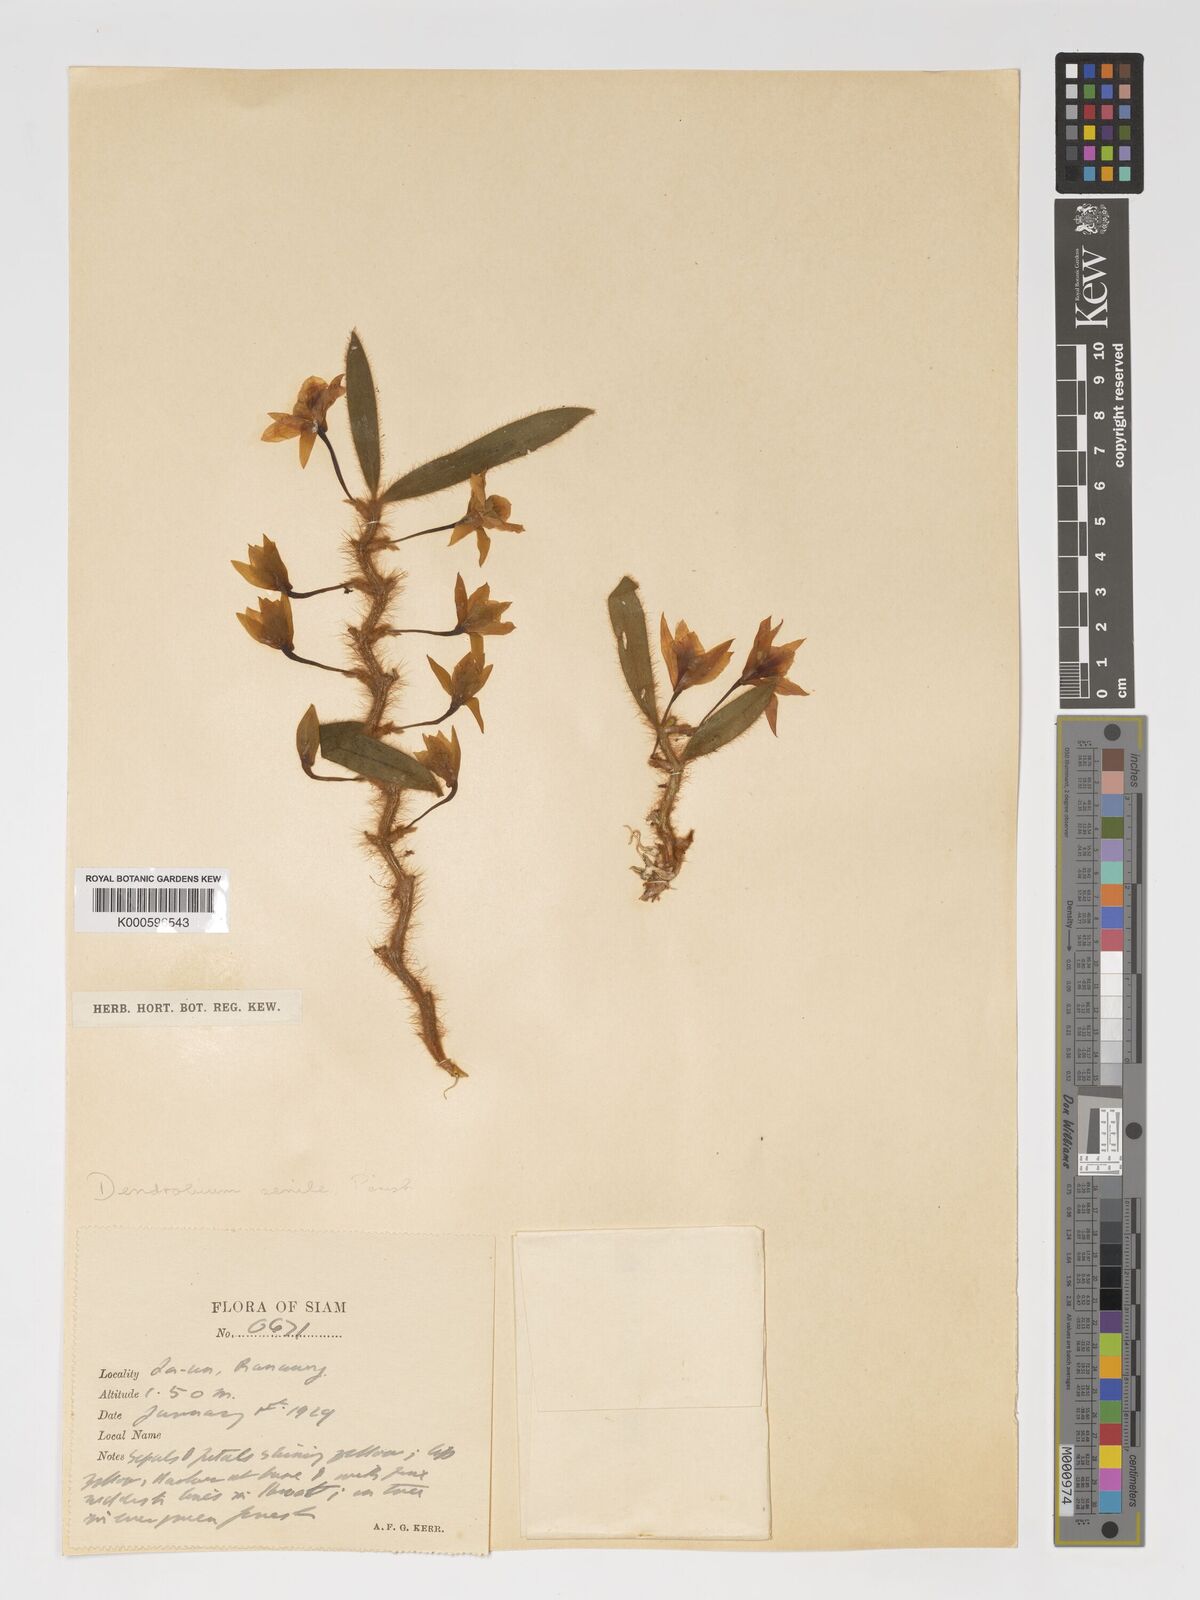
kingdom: Plantae
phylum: Tracheophyta
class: Liliopsida
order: Asparagales
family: Orchidaceae
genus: Dendrobium
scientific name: Dendrobium senile
